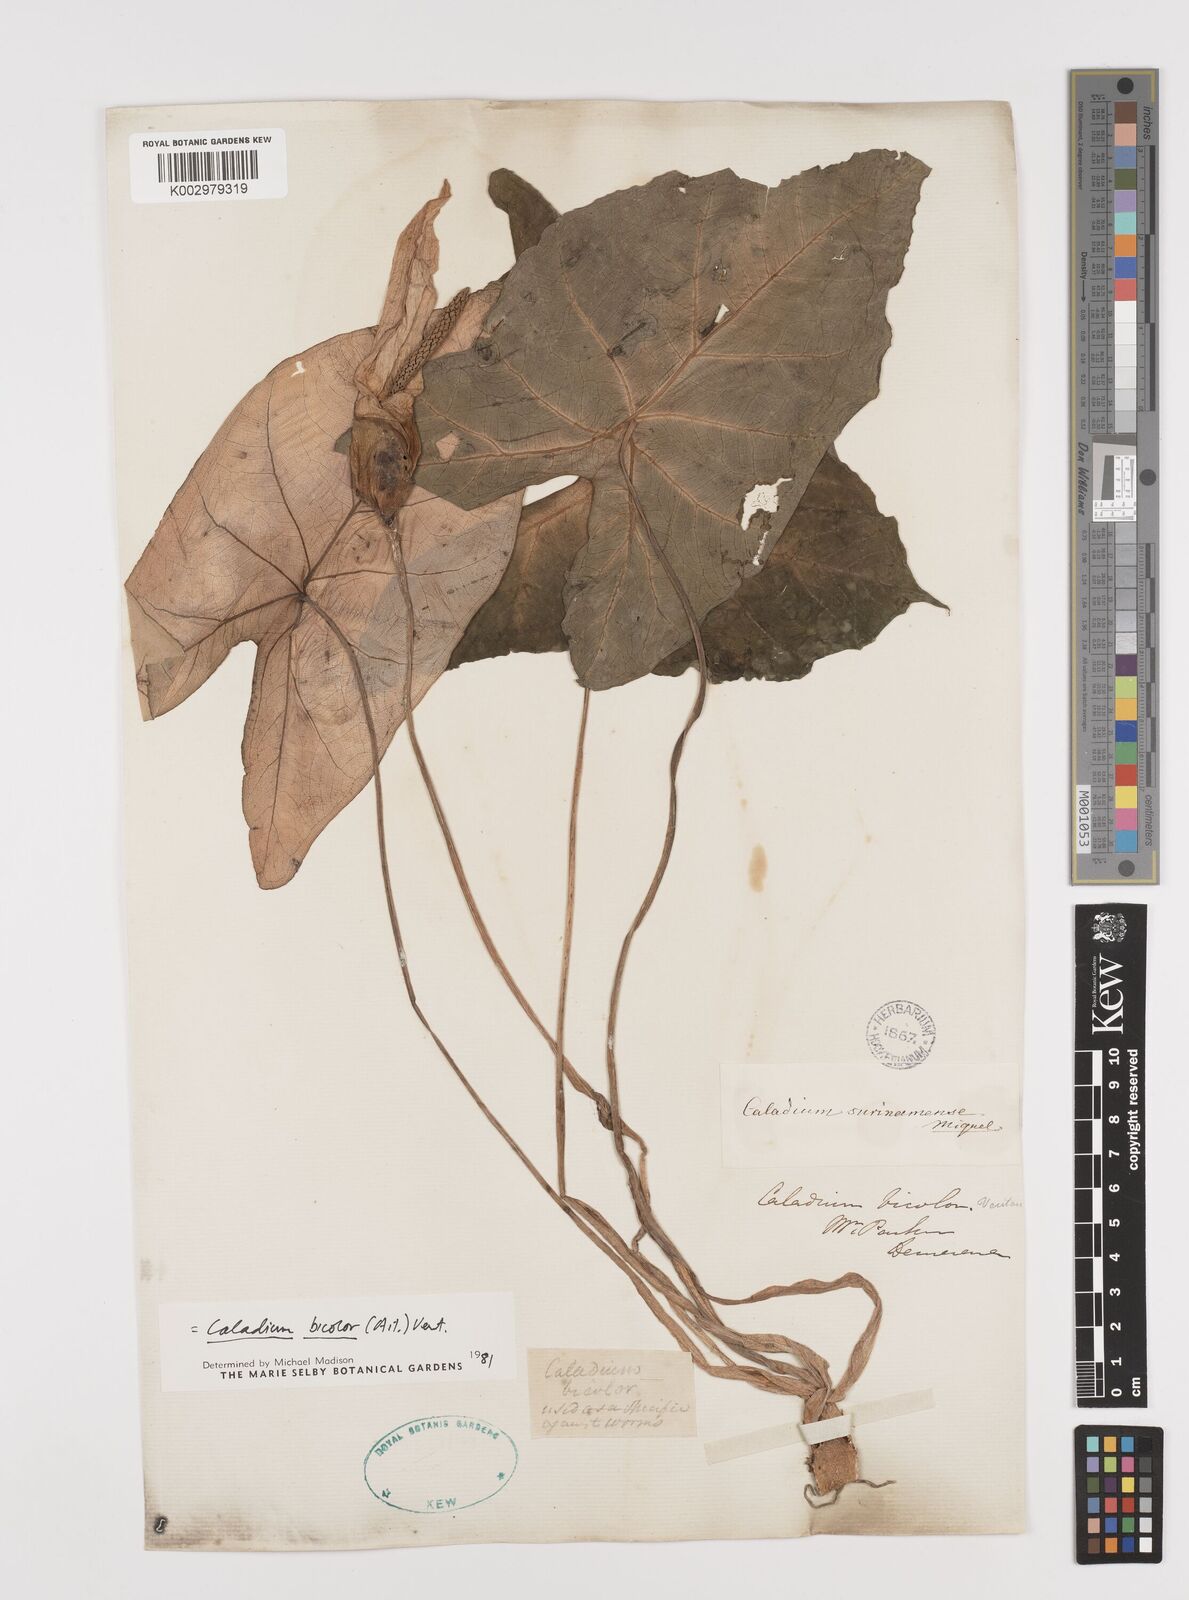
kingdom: Plantae
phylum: Tracheophyta
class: Liliopsida
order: Alismatales
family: Araceae
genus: Caladium
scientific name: Caladium bicolor
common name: Artist's pallet
